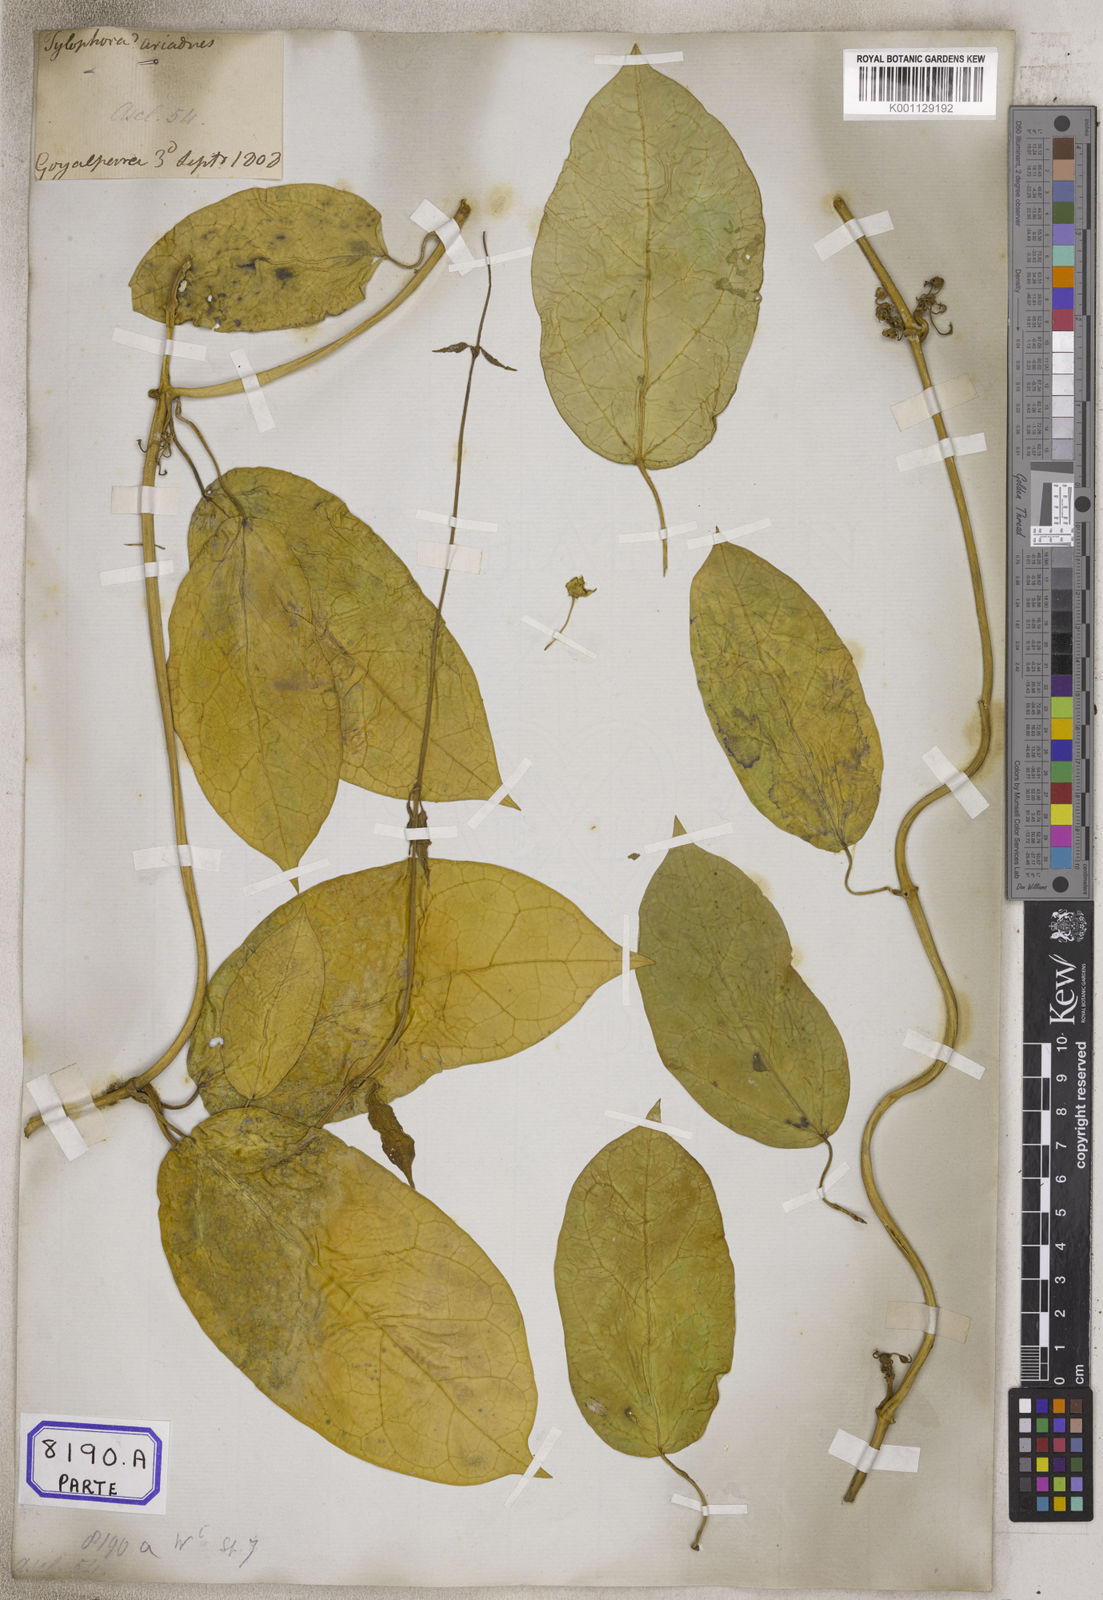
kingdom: Plantae
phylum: Tracheophyta
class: Magnoliopsida
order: Gentianales
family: Apocynaceae
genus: Gymnema
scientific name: Gymnema inodorum
